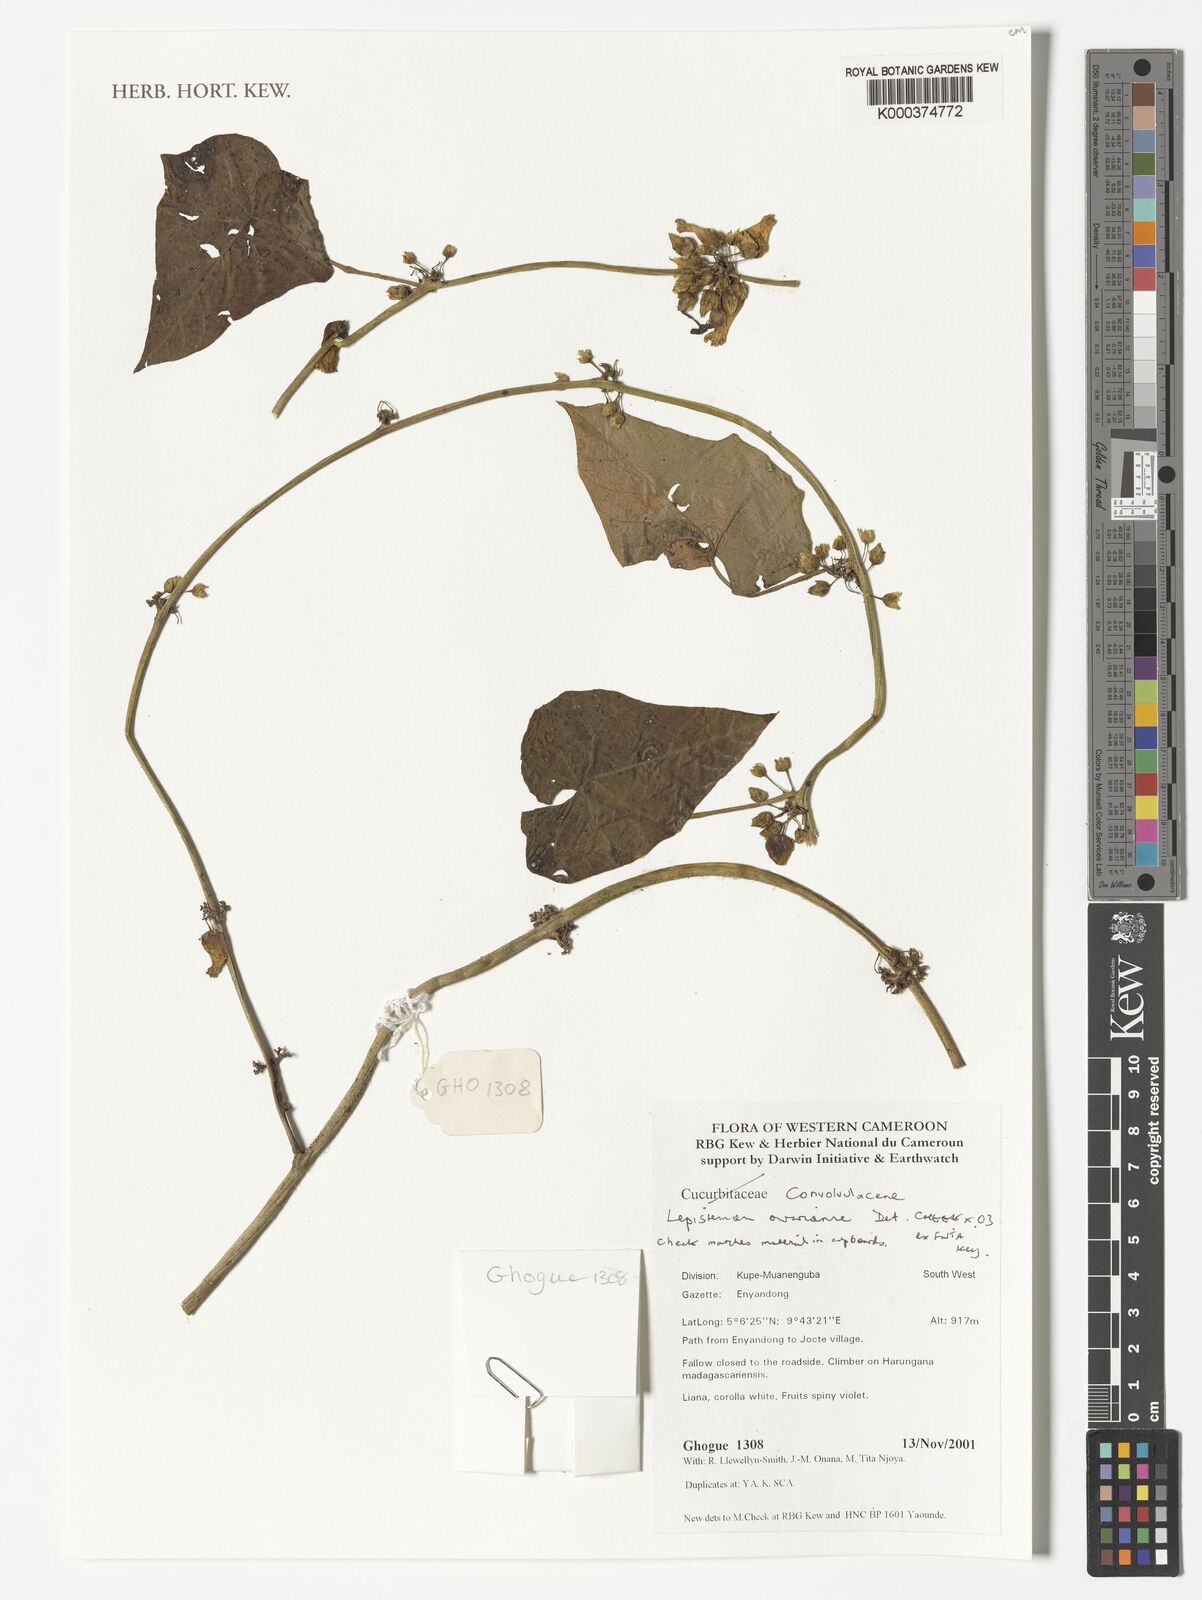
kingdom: Plantae
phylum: Tracheophyta
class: Magnoliopsida
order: Solanales
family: Convolvulaceae
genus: Lepistemon
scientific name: Lepistemon owariensis
